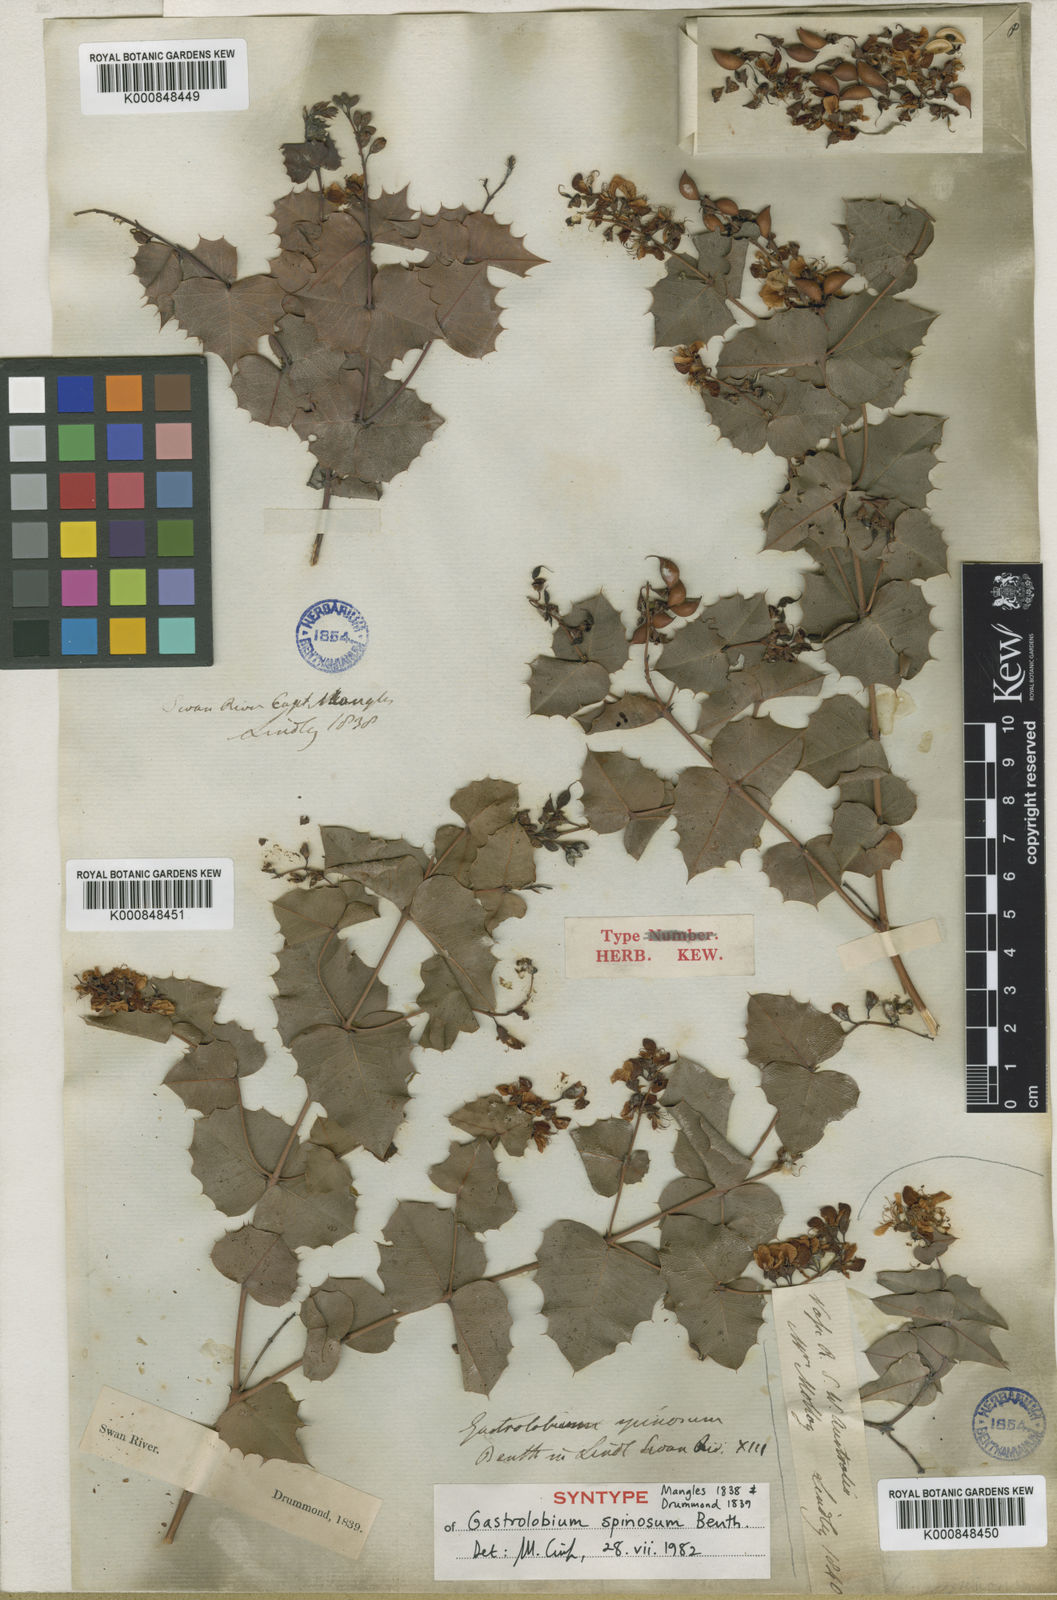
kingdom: Plantae
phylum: Tracheophyta
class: Magnoliopsida
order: Fabales
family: Fabaceae
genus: Gastrolobium
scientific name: Gastrolobium spinosum
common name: Prickly poison
